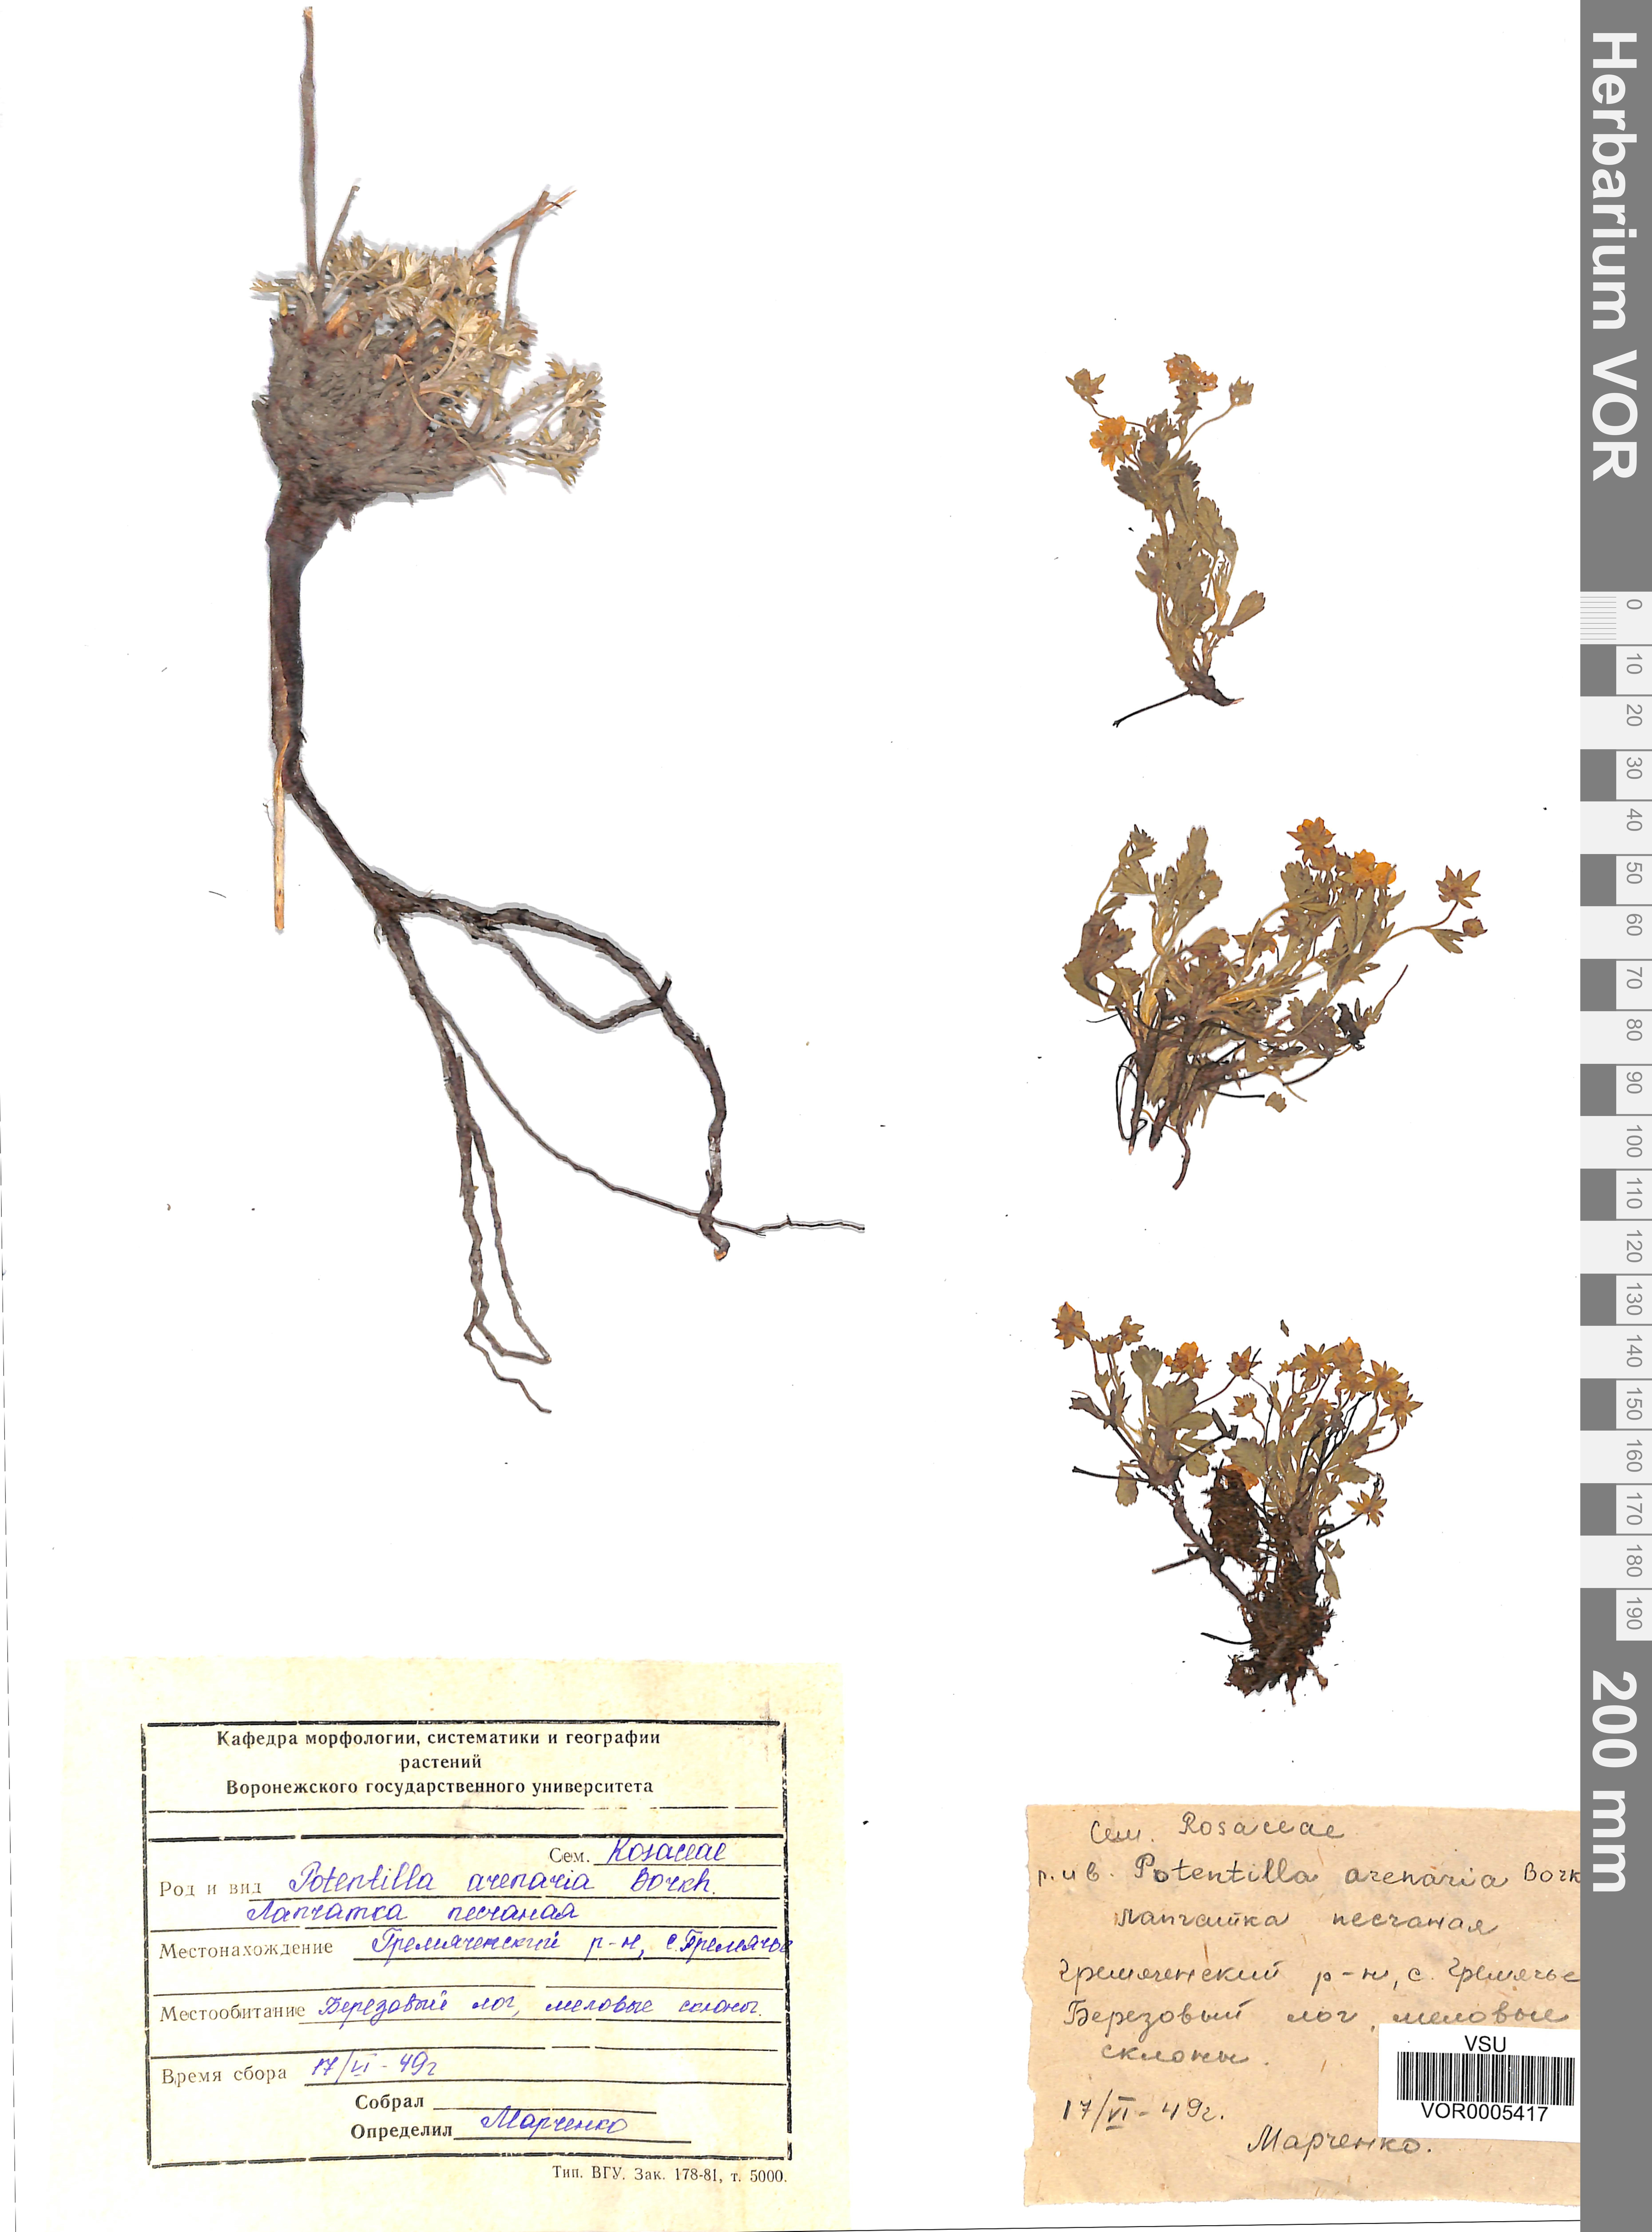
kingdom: Plantae
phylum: Tracheophyta
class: Magnoliopsida
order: Rosales
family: Rosaceae
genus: Potentilla
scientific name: Potentilla cinerea
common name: Ashy cinquefoil
